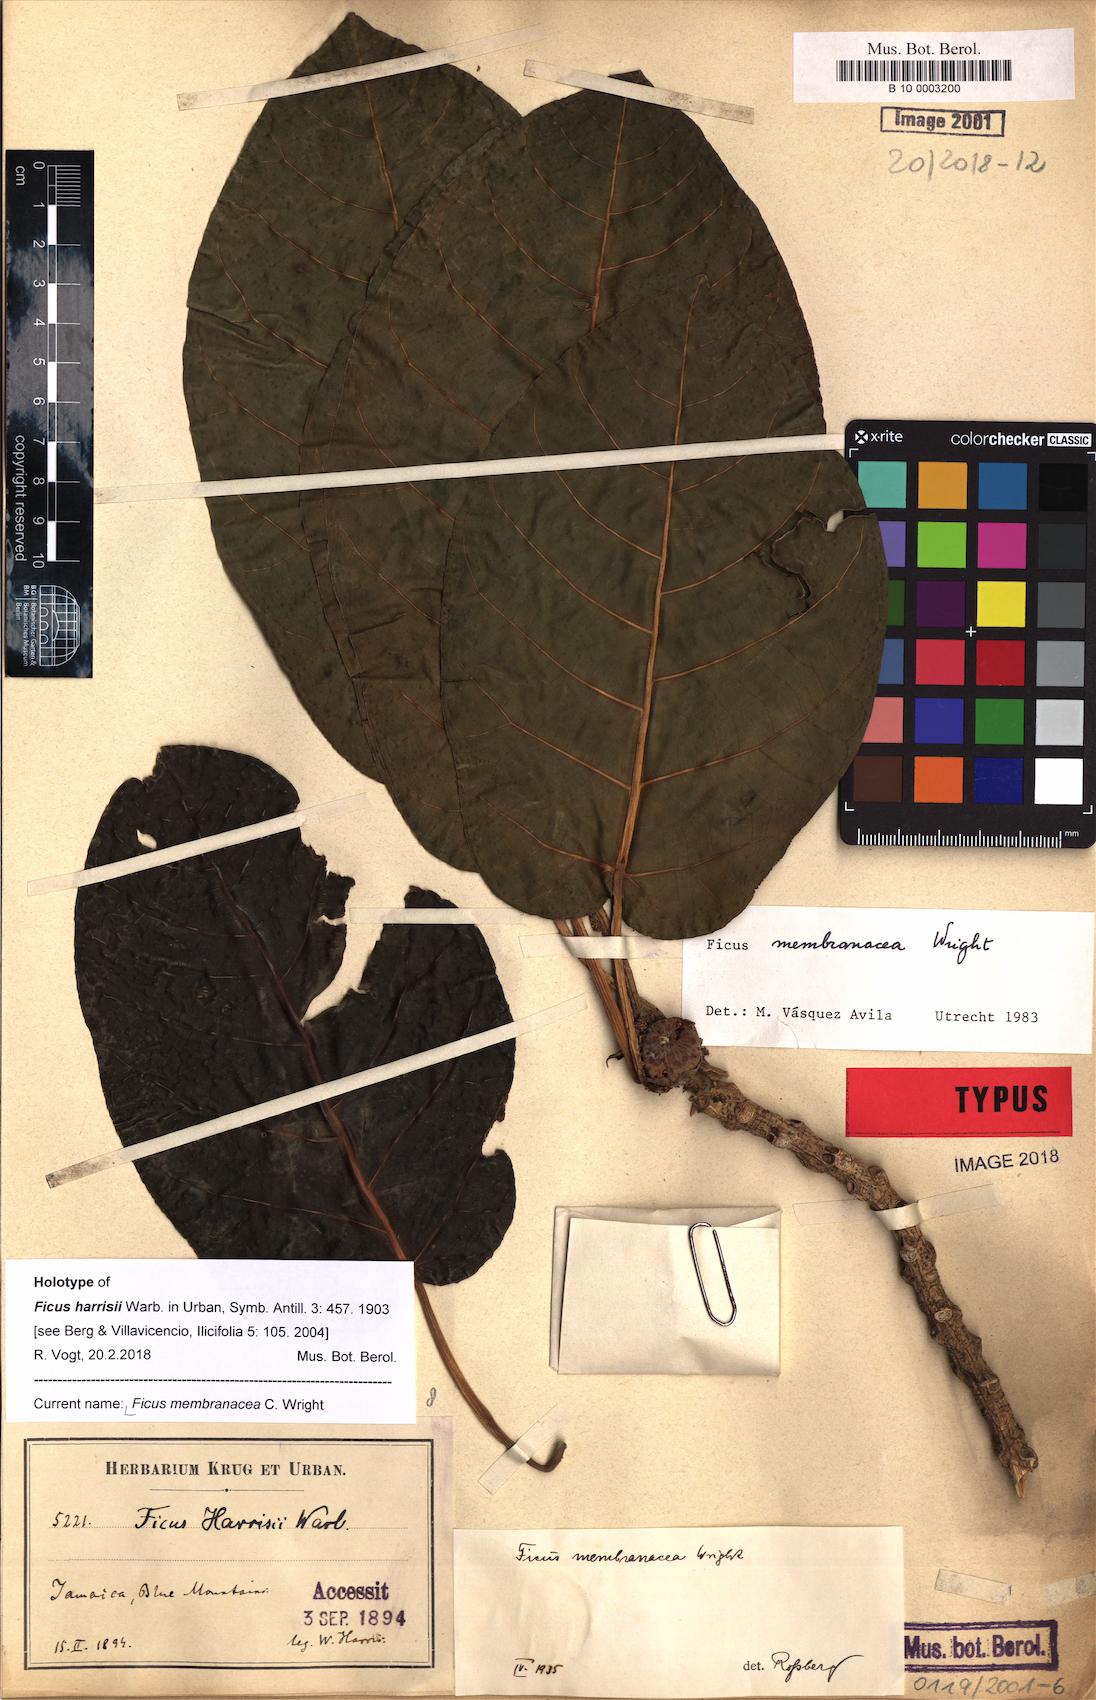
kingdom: Plantae
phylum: Tracheophyta
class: Magnoliopsida
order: Rosales
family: Moraceae
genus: Ficus
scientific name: Ficus membranacea
